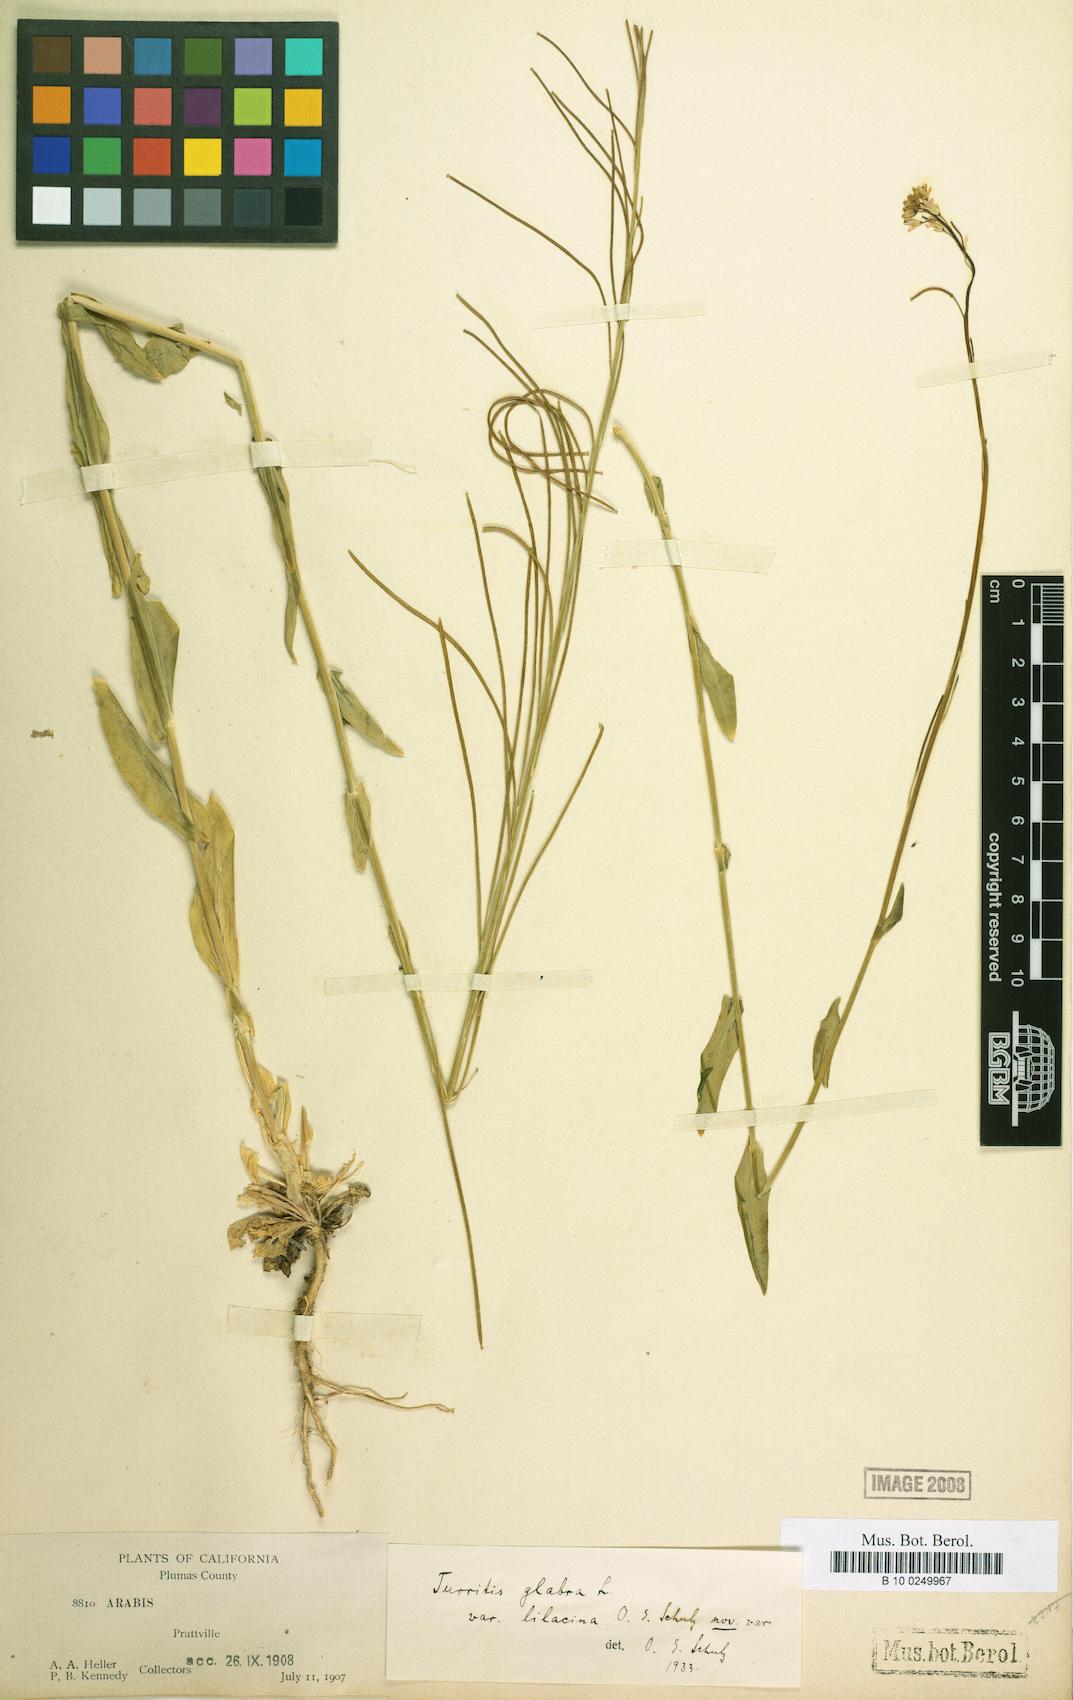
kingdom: Plantae
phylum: Tracheophyta
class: Magnoliopsida
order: Brassicales
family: Brassicaceae
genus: Turritis
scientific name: Turritis glabra
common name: Tower rockcress
